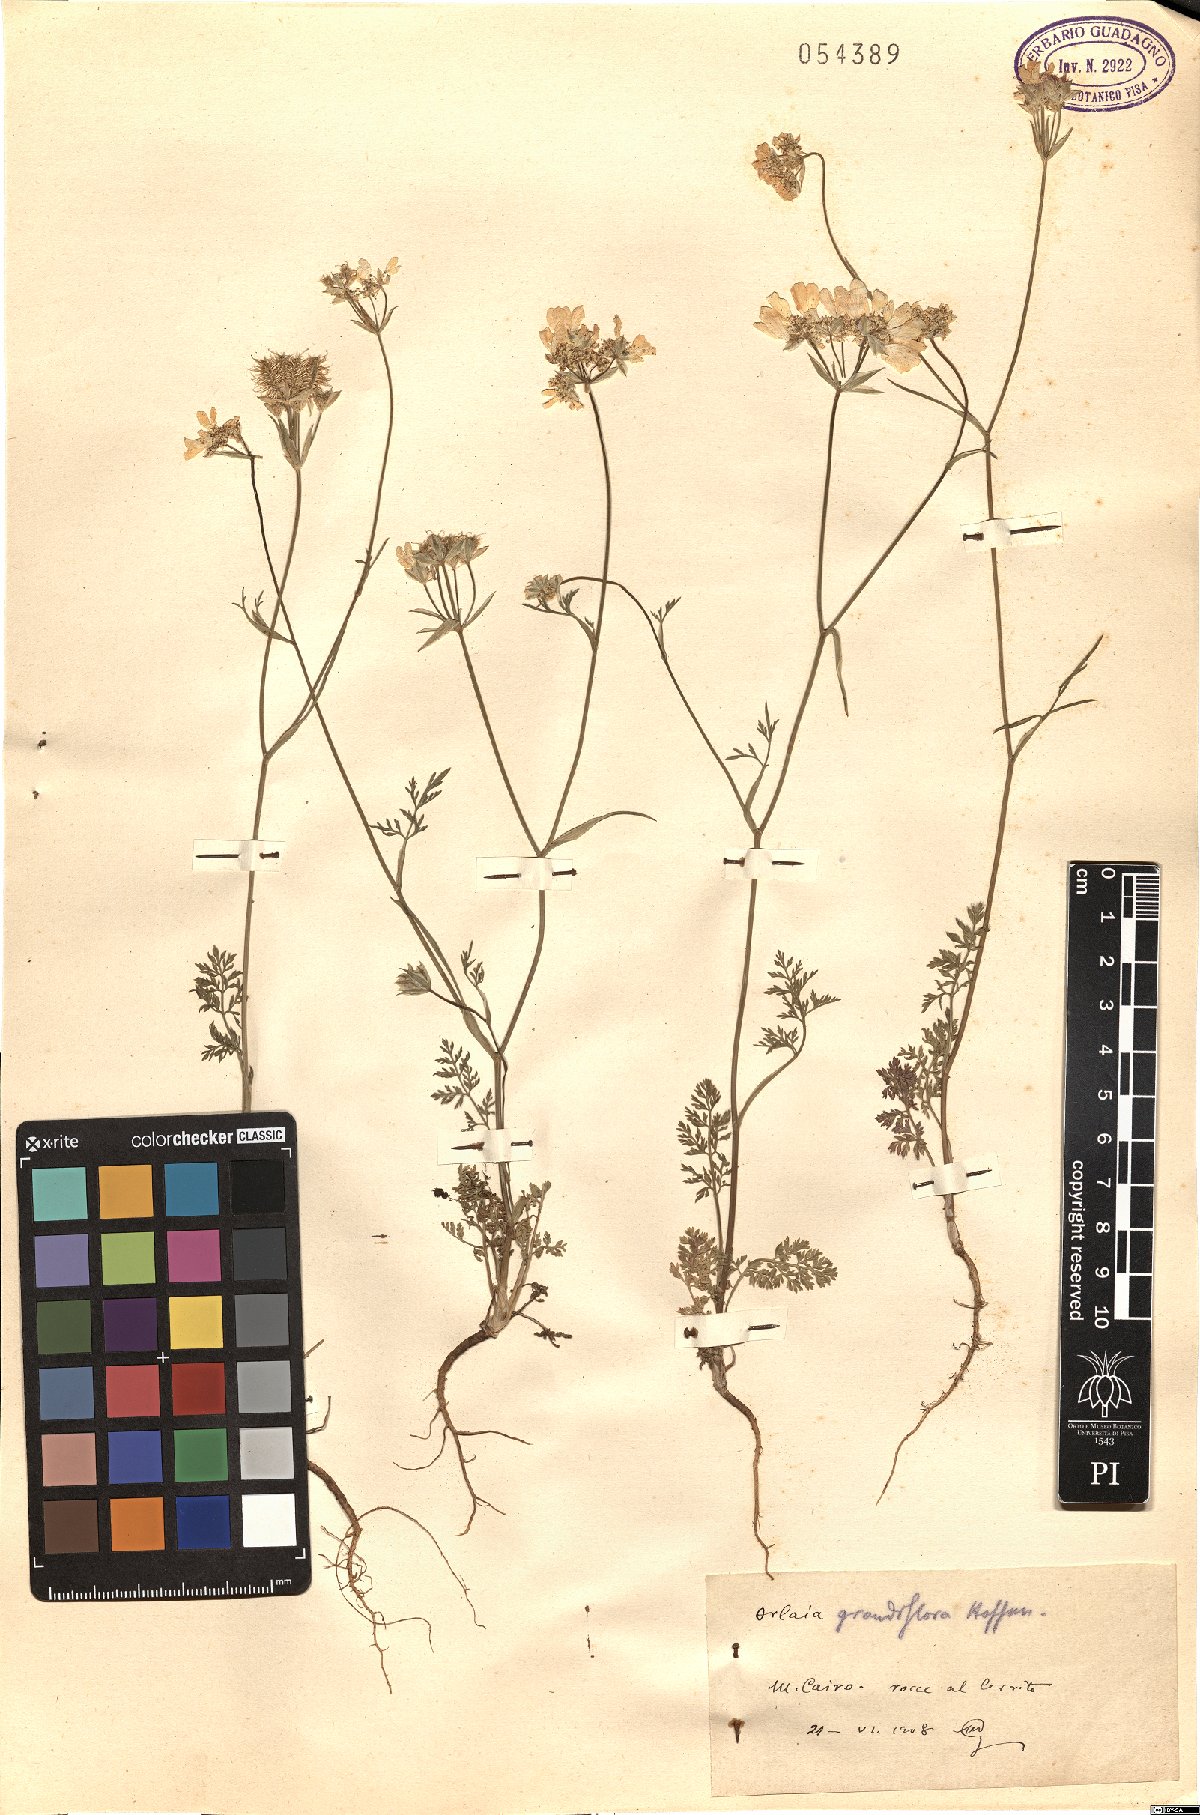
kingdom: Plantae
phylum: Tracheophyta
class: Magnoliopsida
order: Apiales
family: Apiaceae
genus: Orlaya
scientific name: Orlaya grandiflora
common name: White lace flower
